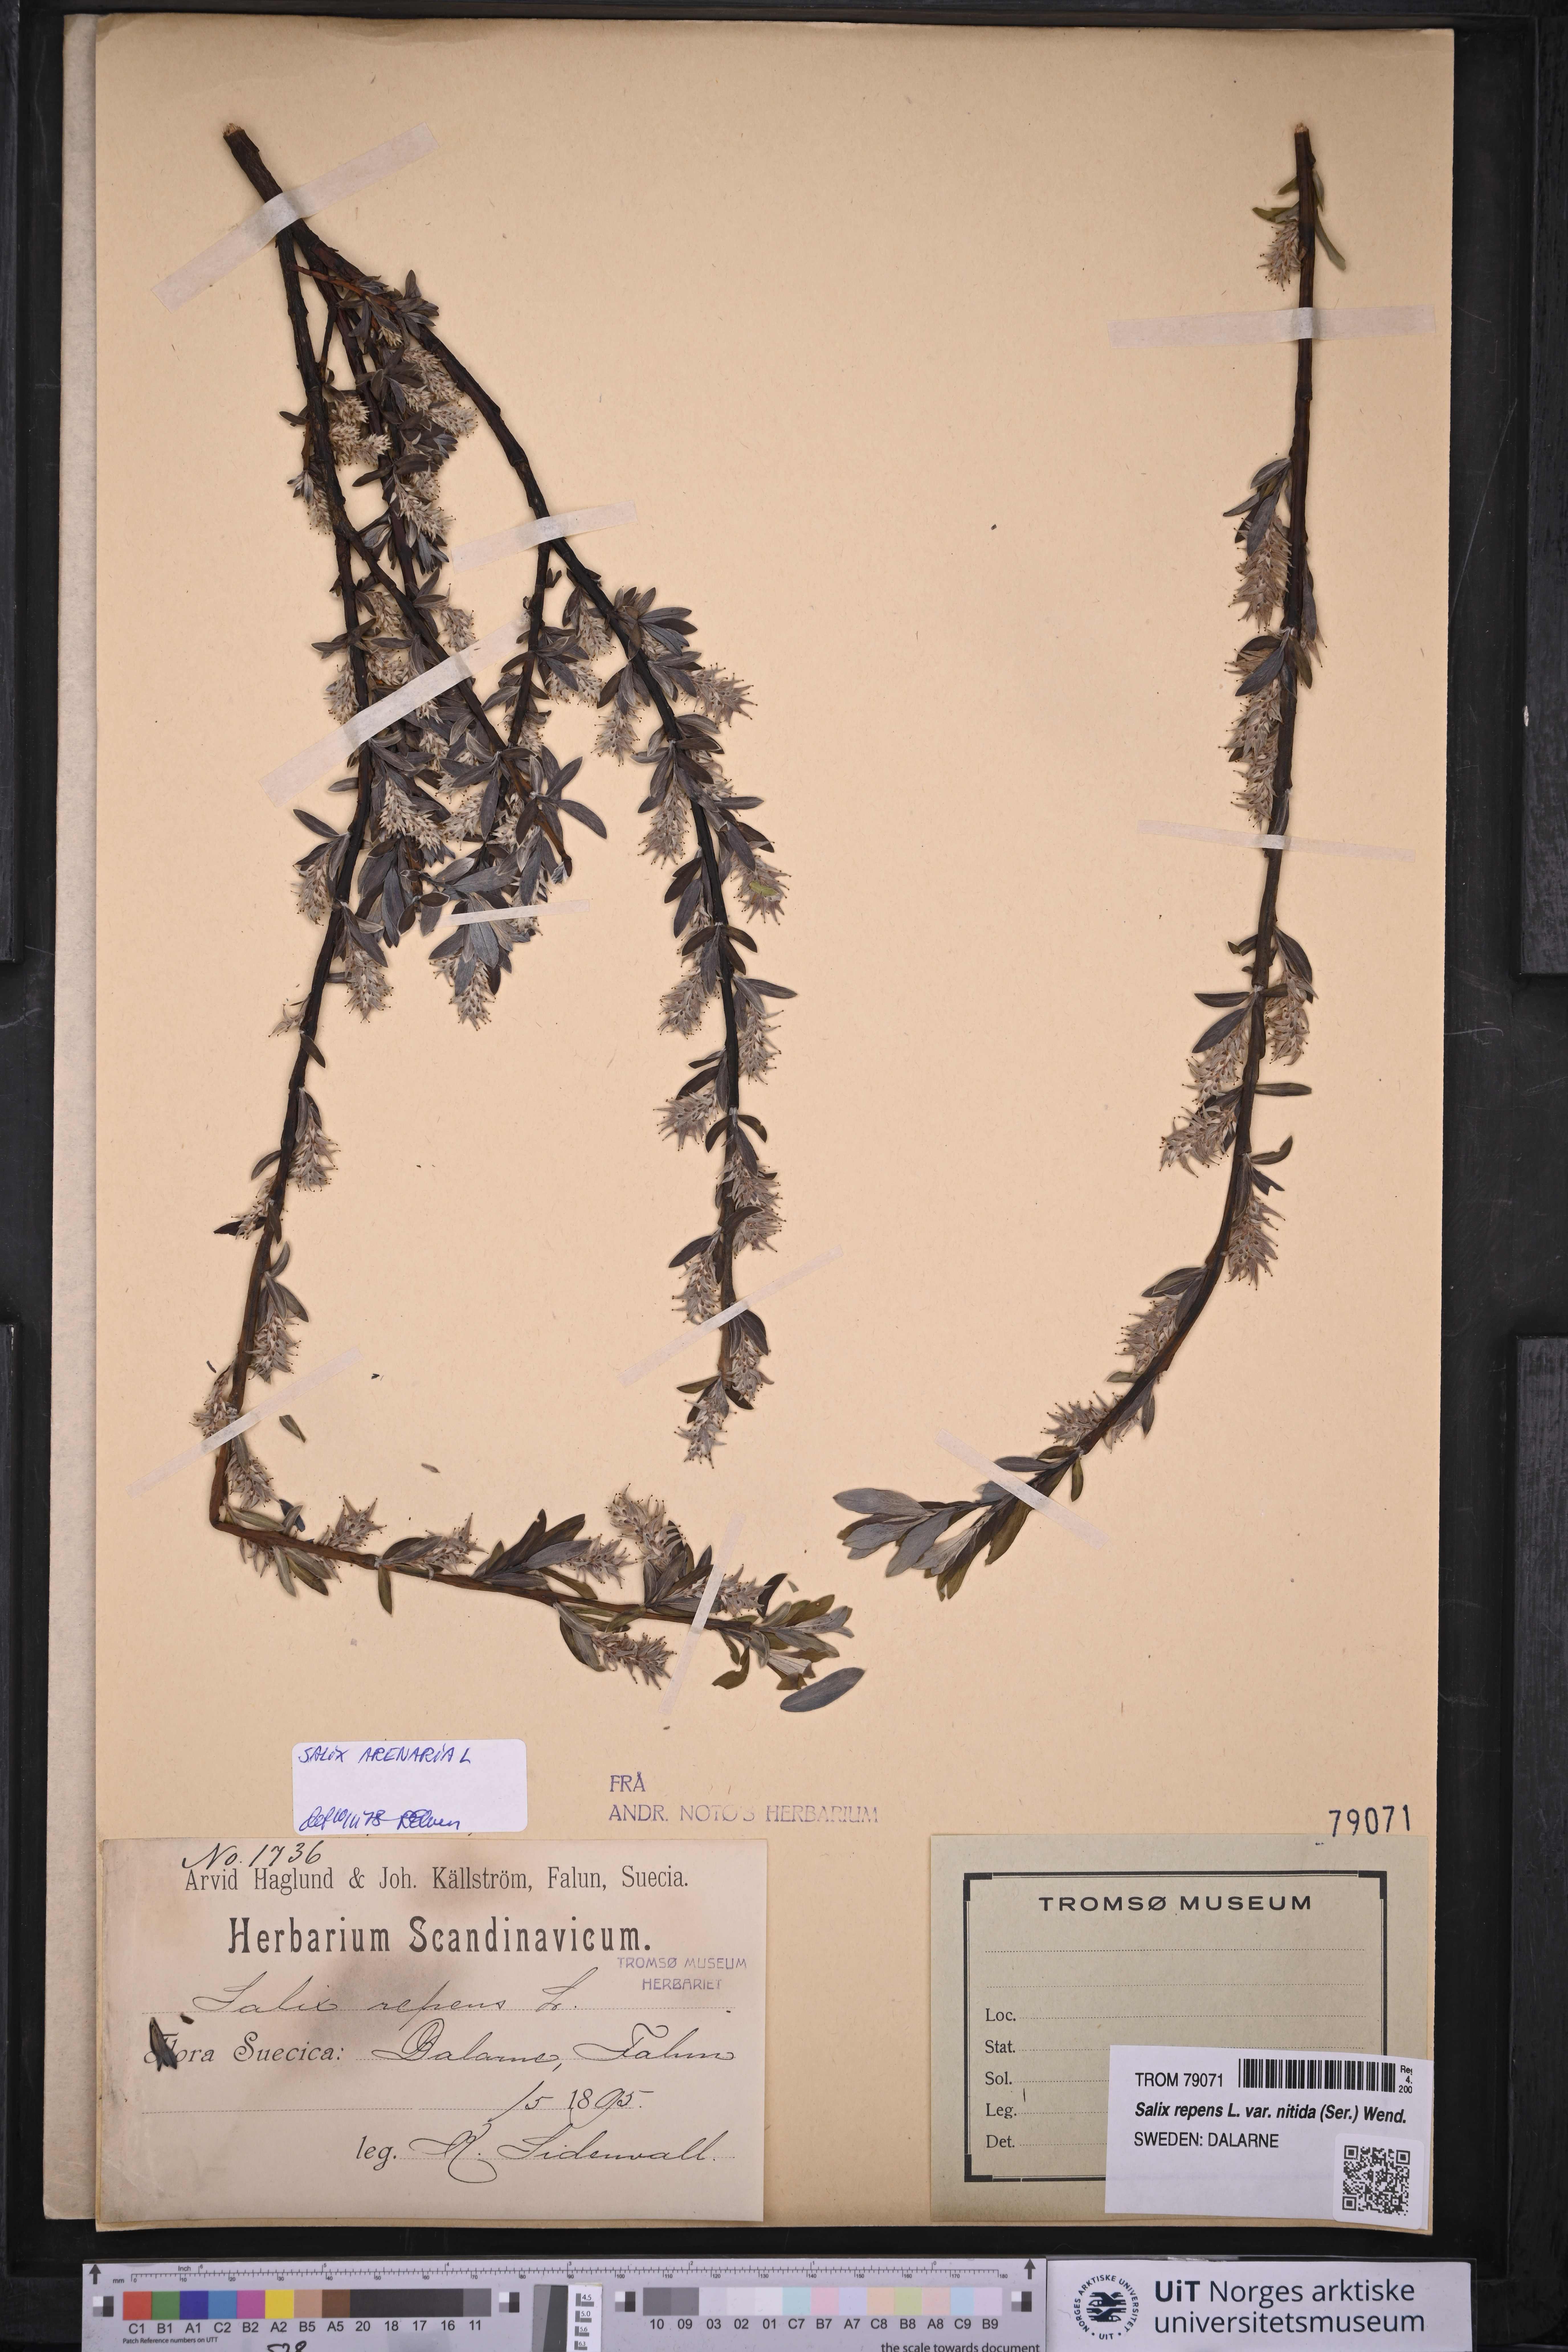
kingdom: Plantae
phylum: Tracheophyta
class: Magnoliopsida
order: Malpighiales
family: Salicaceae
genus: Salix
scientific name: Salix repens
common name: Creeping willow
